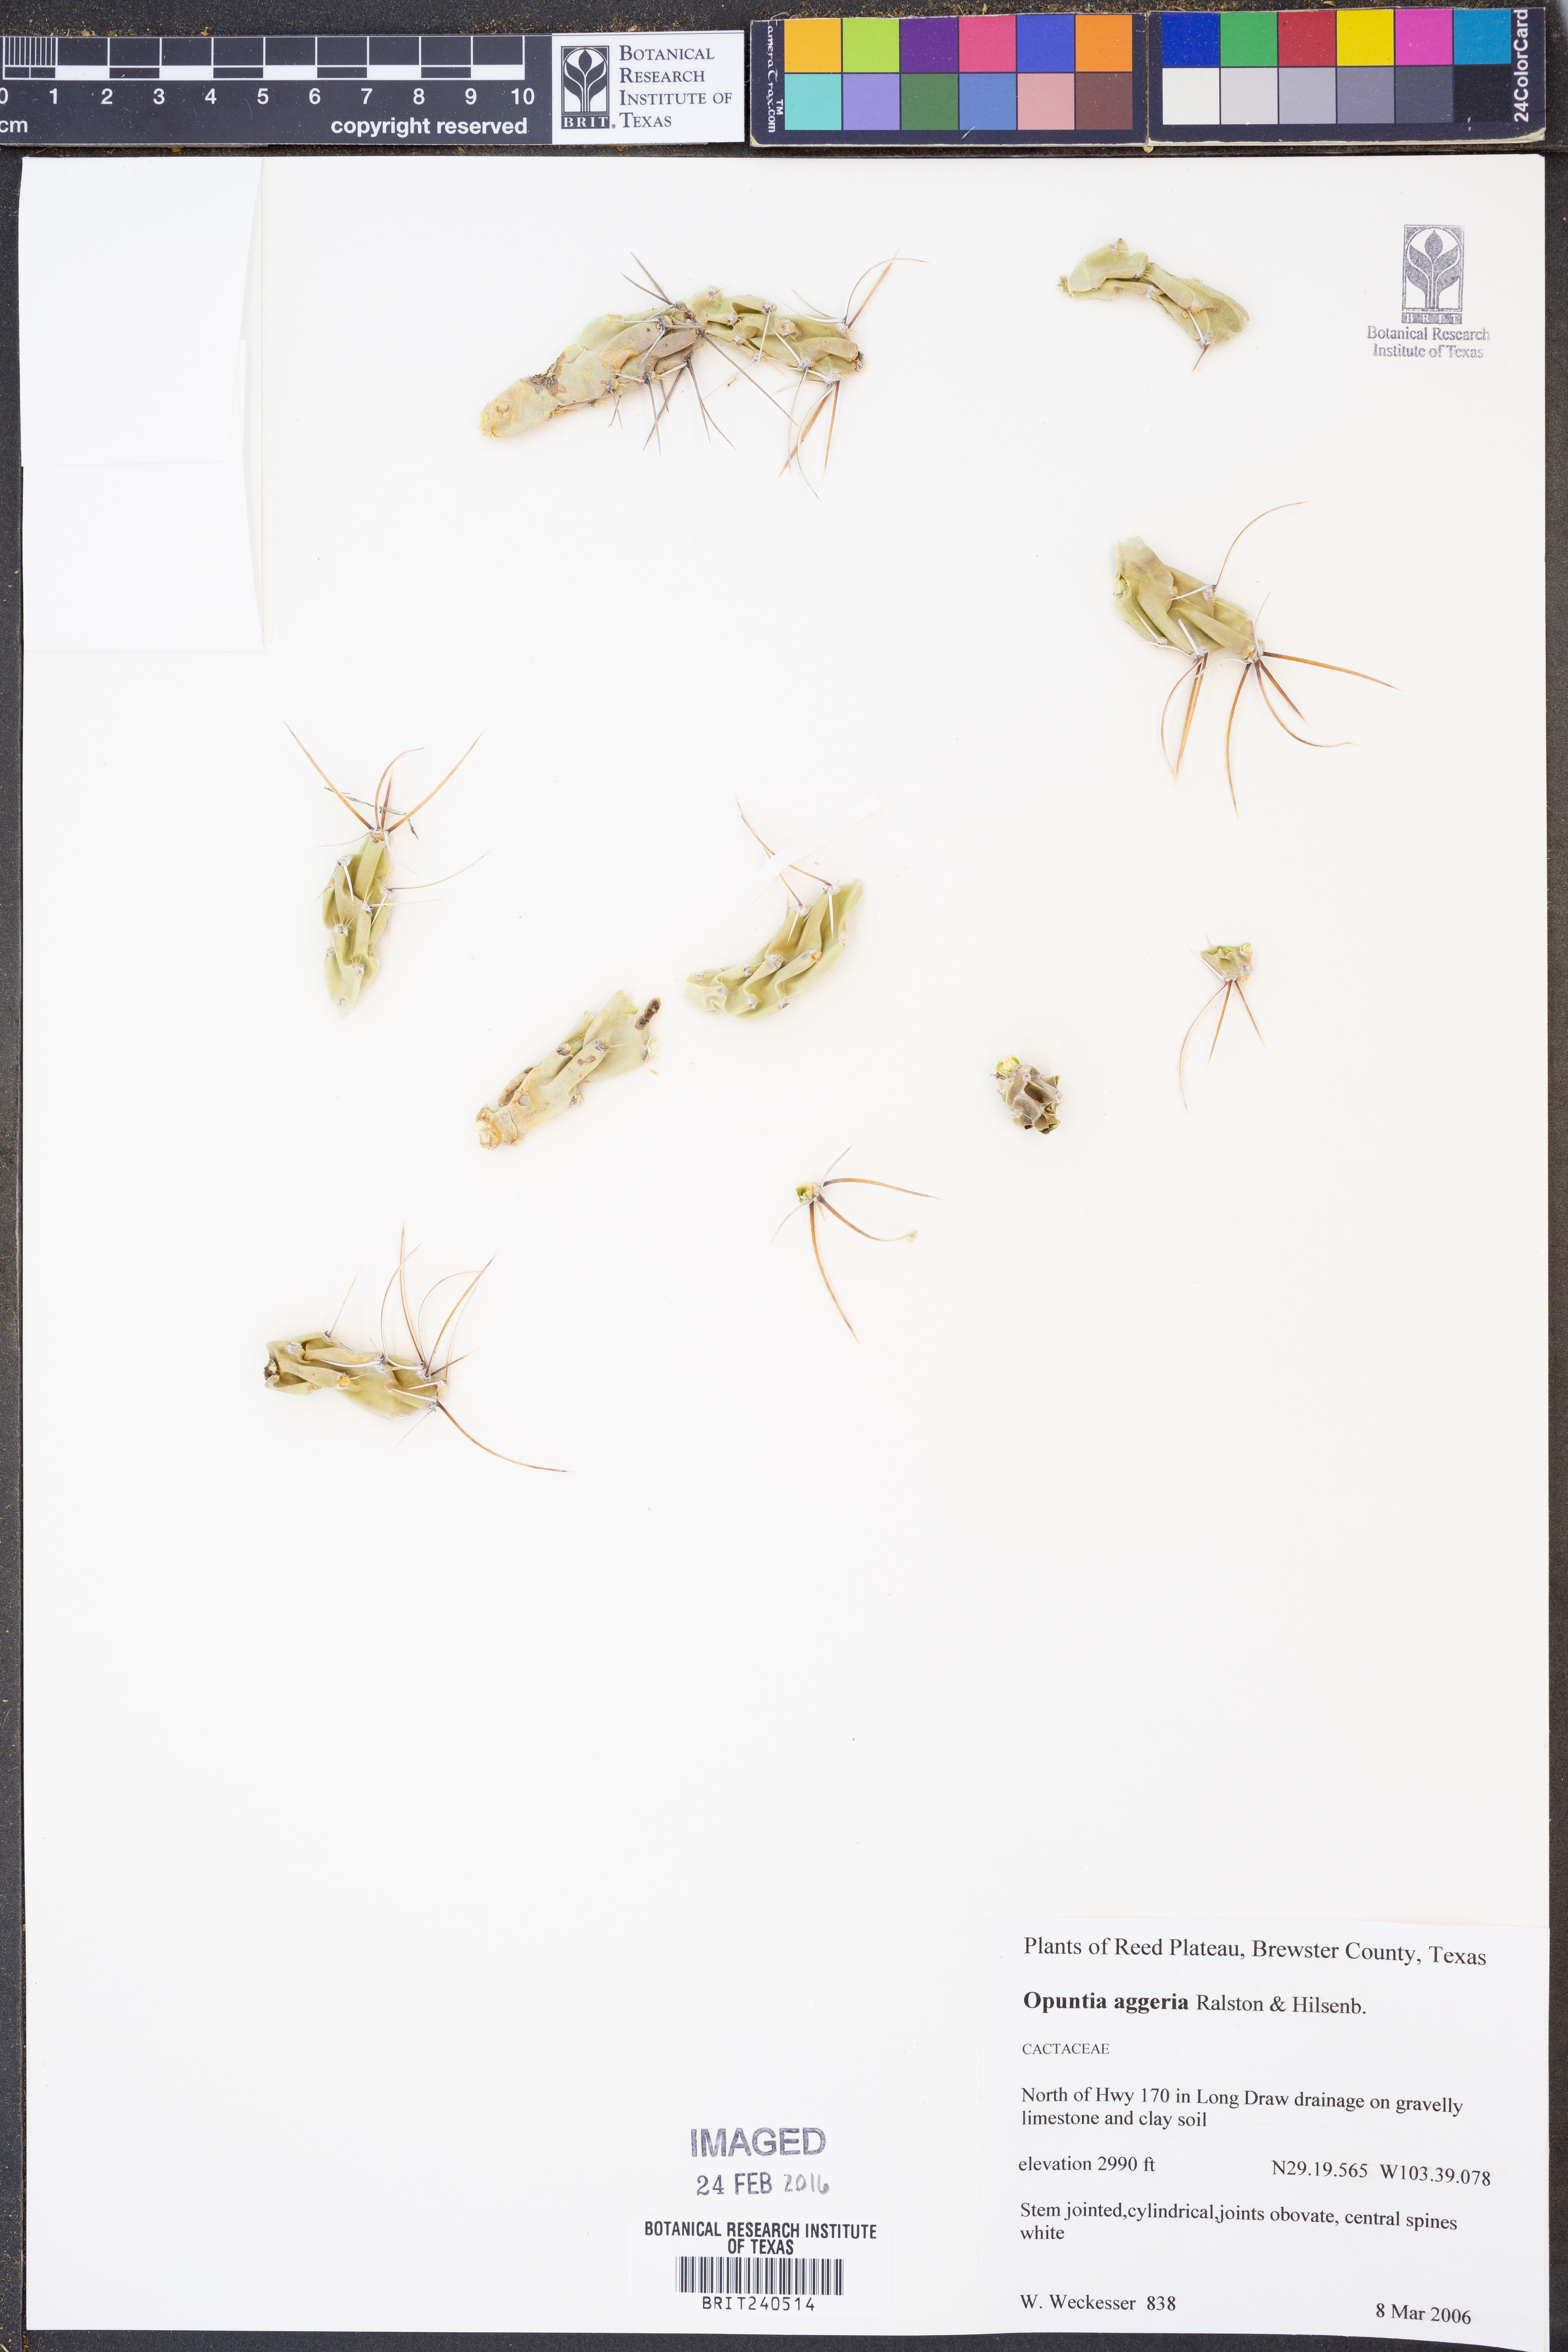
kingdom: Plantae
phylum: Tracheophyta
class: Magnoliopsida
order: Caryophyllales
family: Cactaceae
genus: Grusonia
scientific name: Grusonia aggeria
